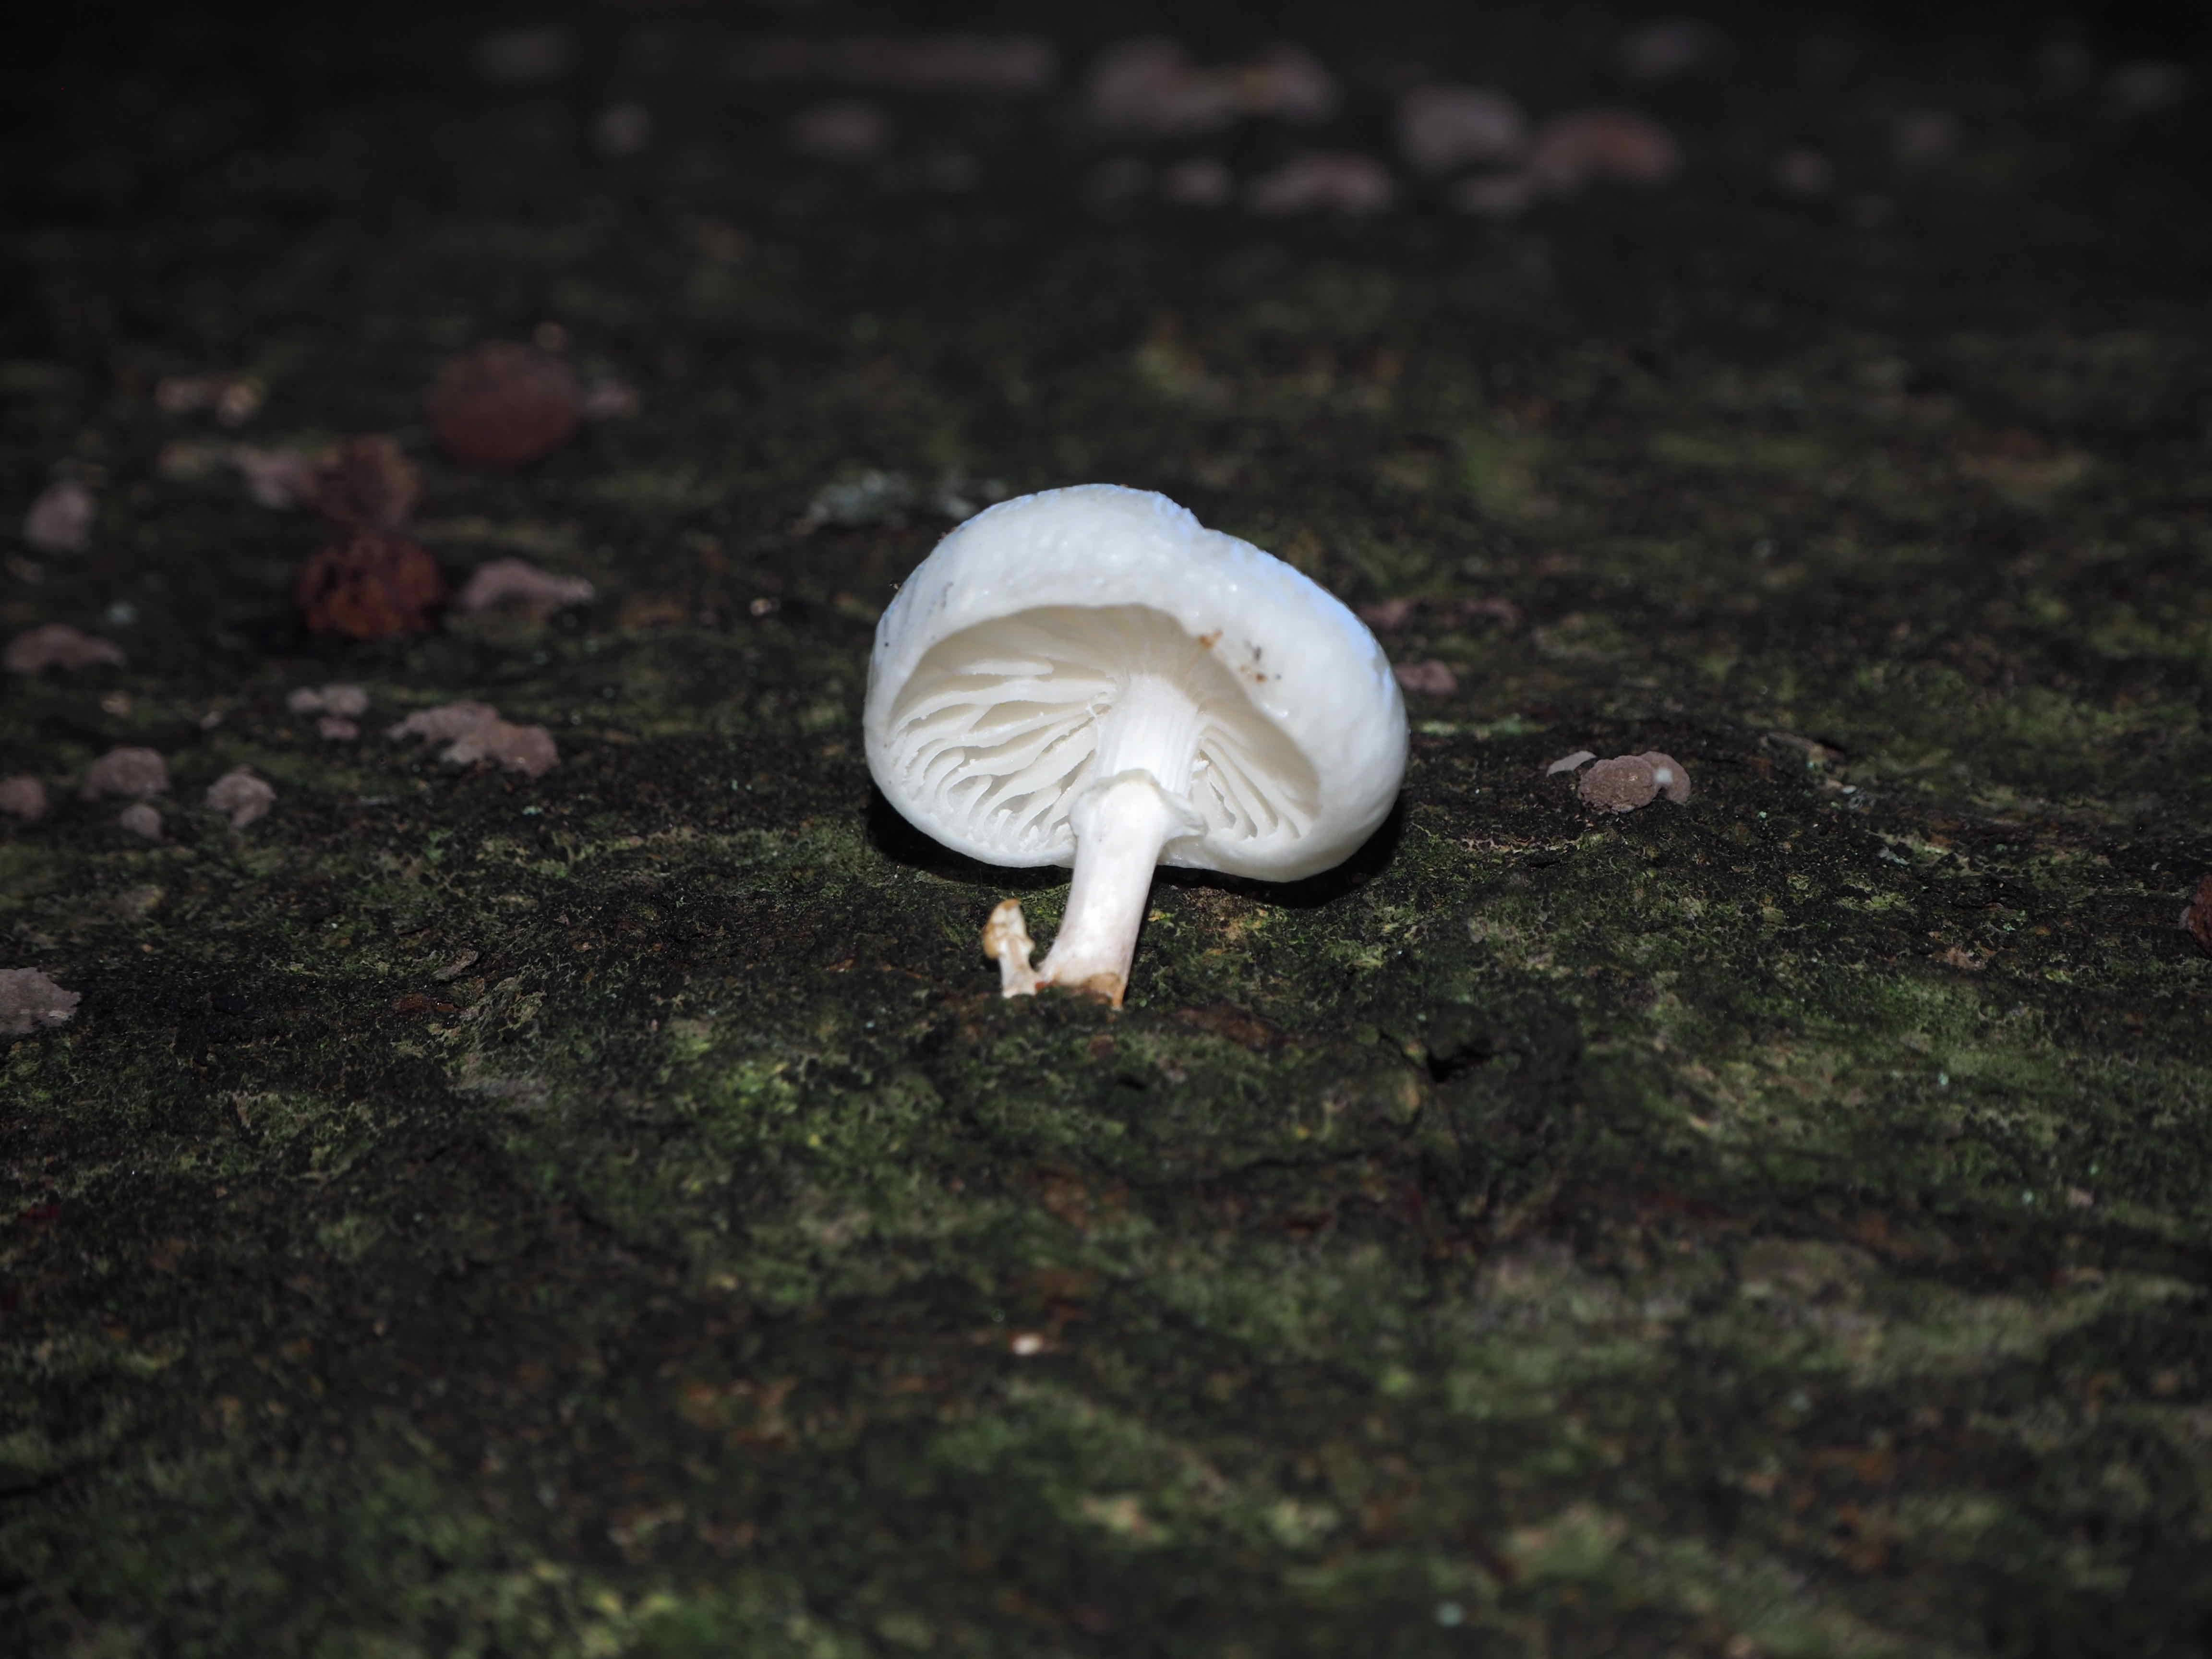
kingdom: Fungi
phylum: Basidiomycota
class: Agaricomycetes
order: Agaricales
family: Physalacriaceae
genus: Mucidula
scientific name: Mucidula mucida
